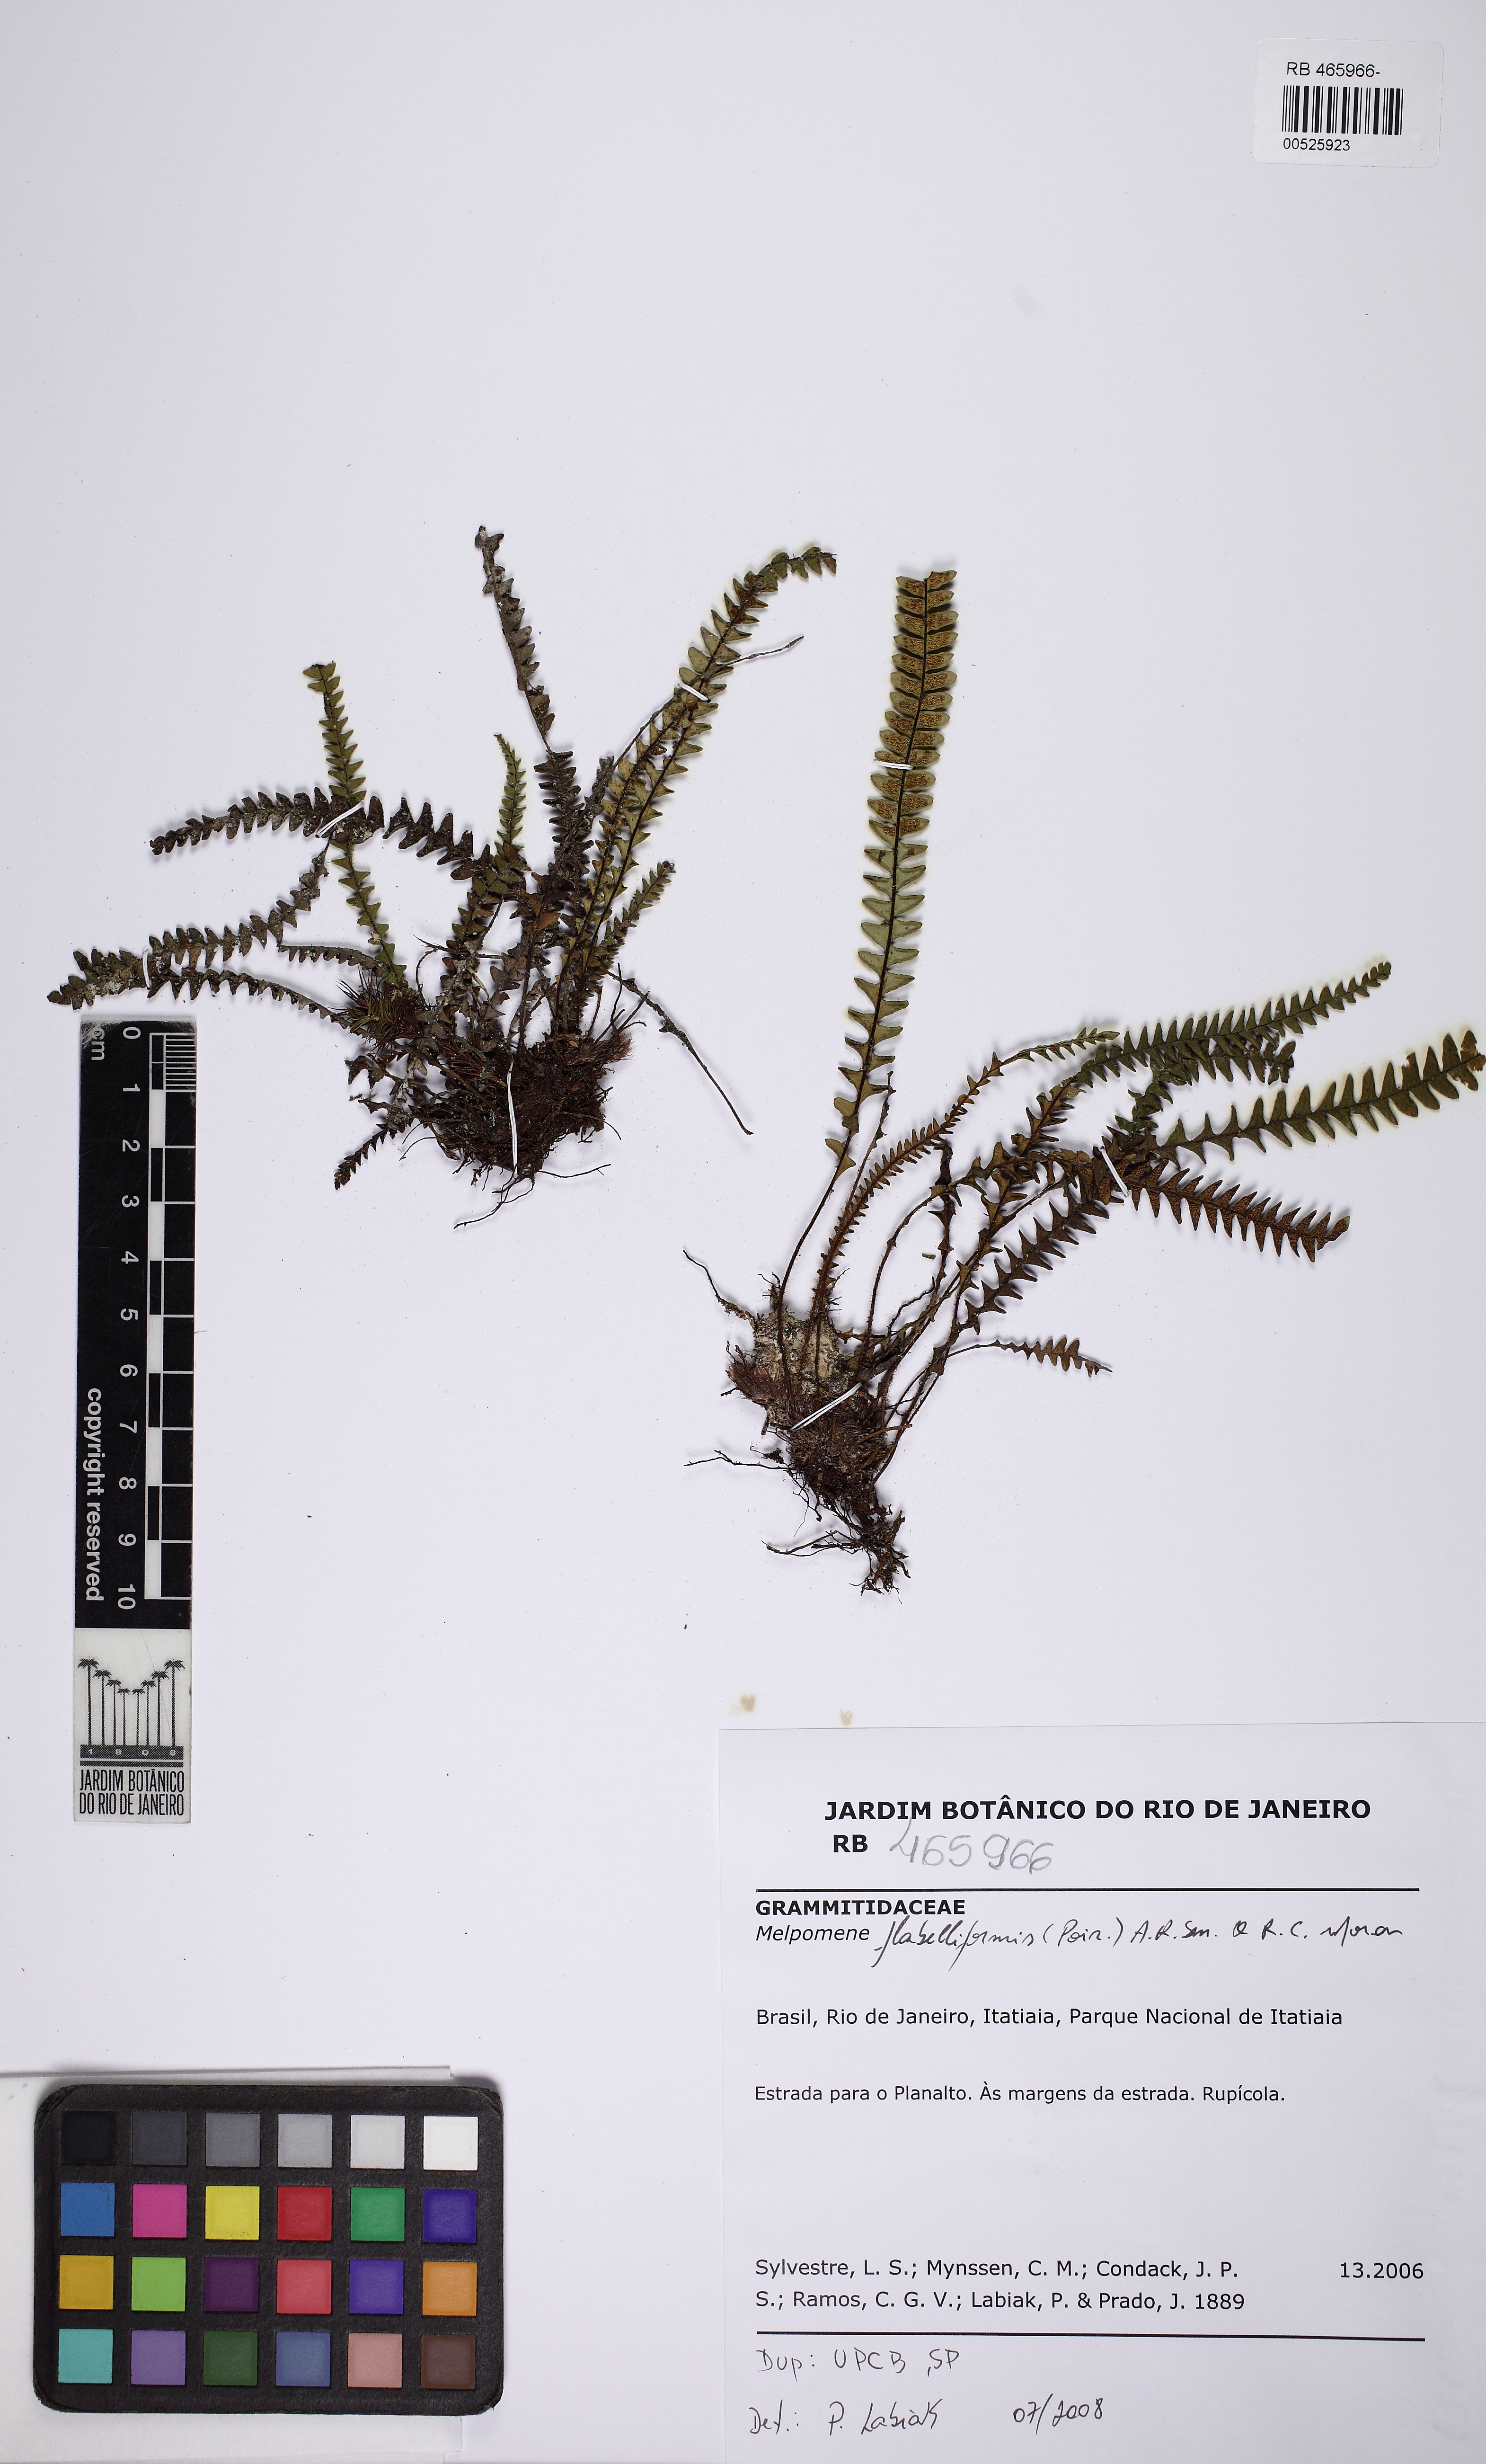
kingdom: Plantae
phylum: Tracheophyta
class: Polypodiopsida
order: Polypodiales
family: Polypodiaceae
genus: Melpomene
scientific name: Melpomene flabelliformis
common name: Fanleaf dwarf polypody
